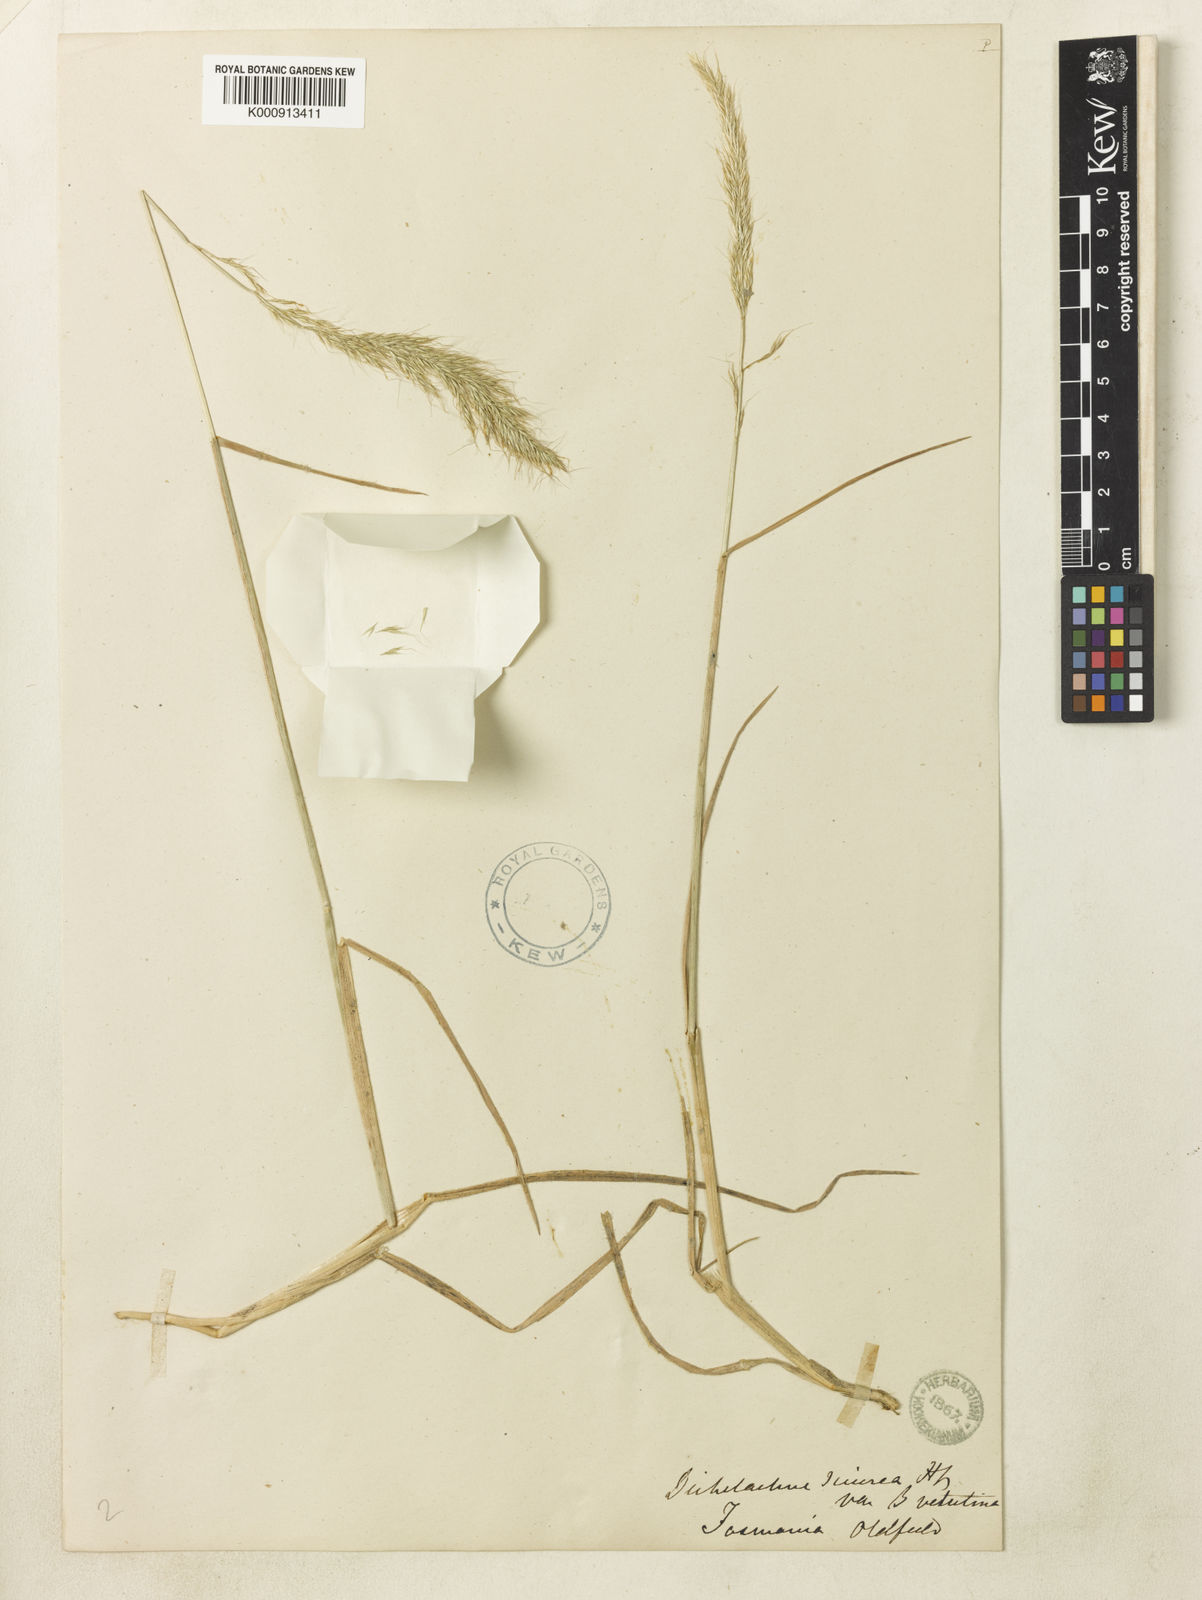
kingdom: Plantae
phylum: Tracheophyta
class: Liliopsida
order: Poales
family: Poaceae
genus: Pentapogon
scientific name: Pentapogon quadrifidus
